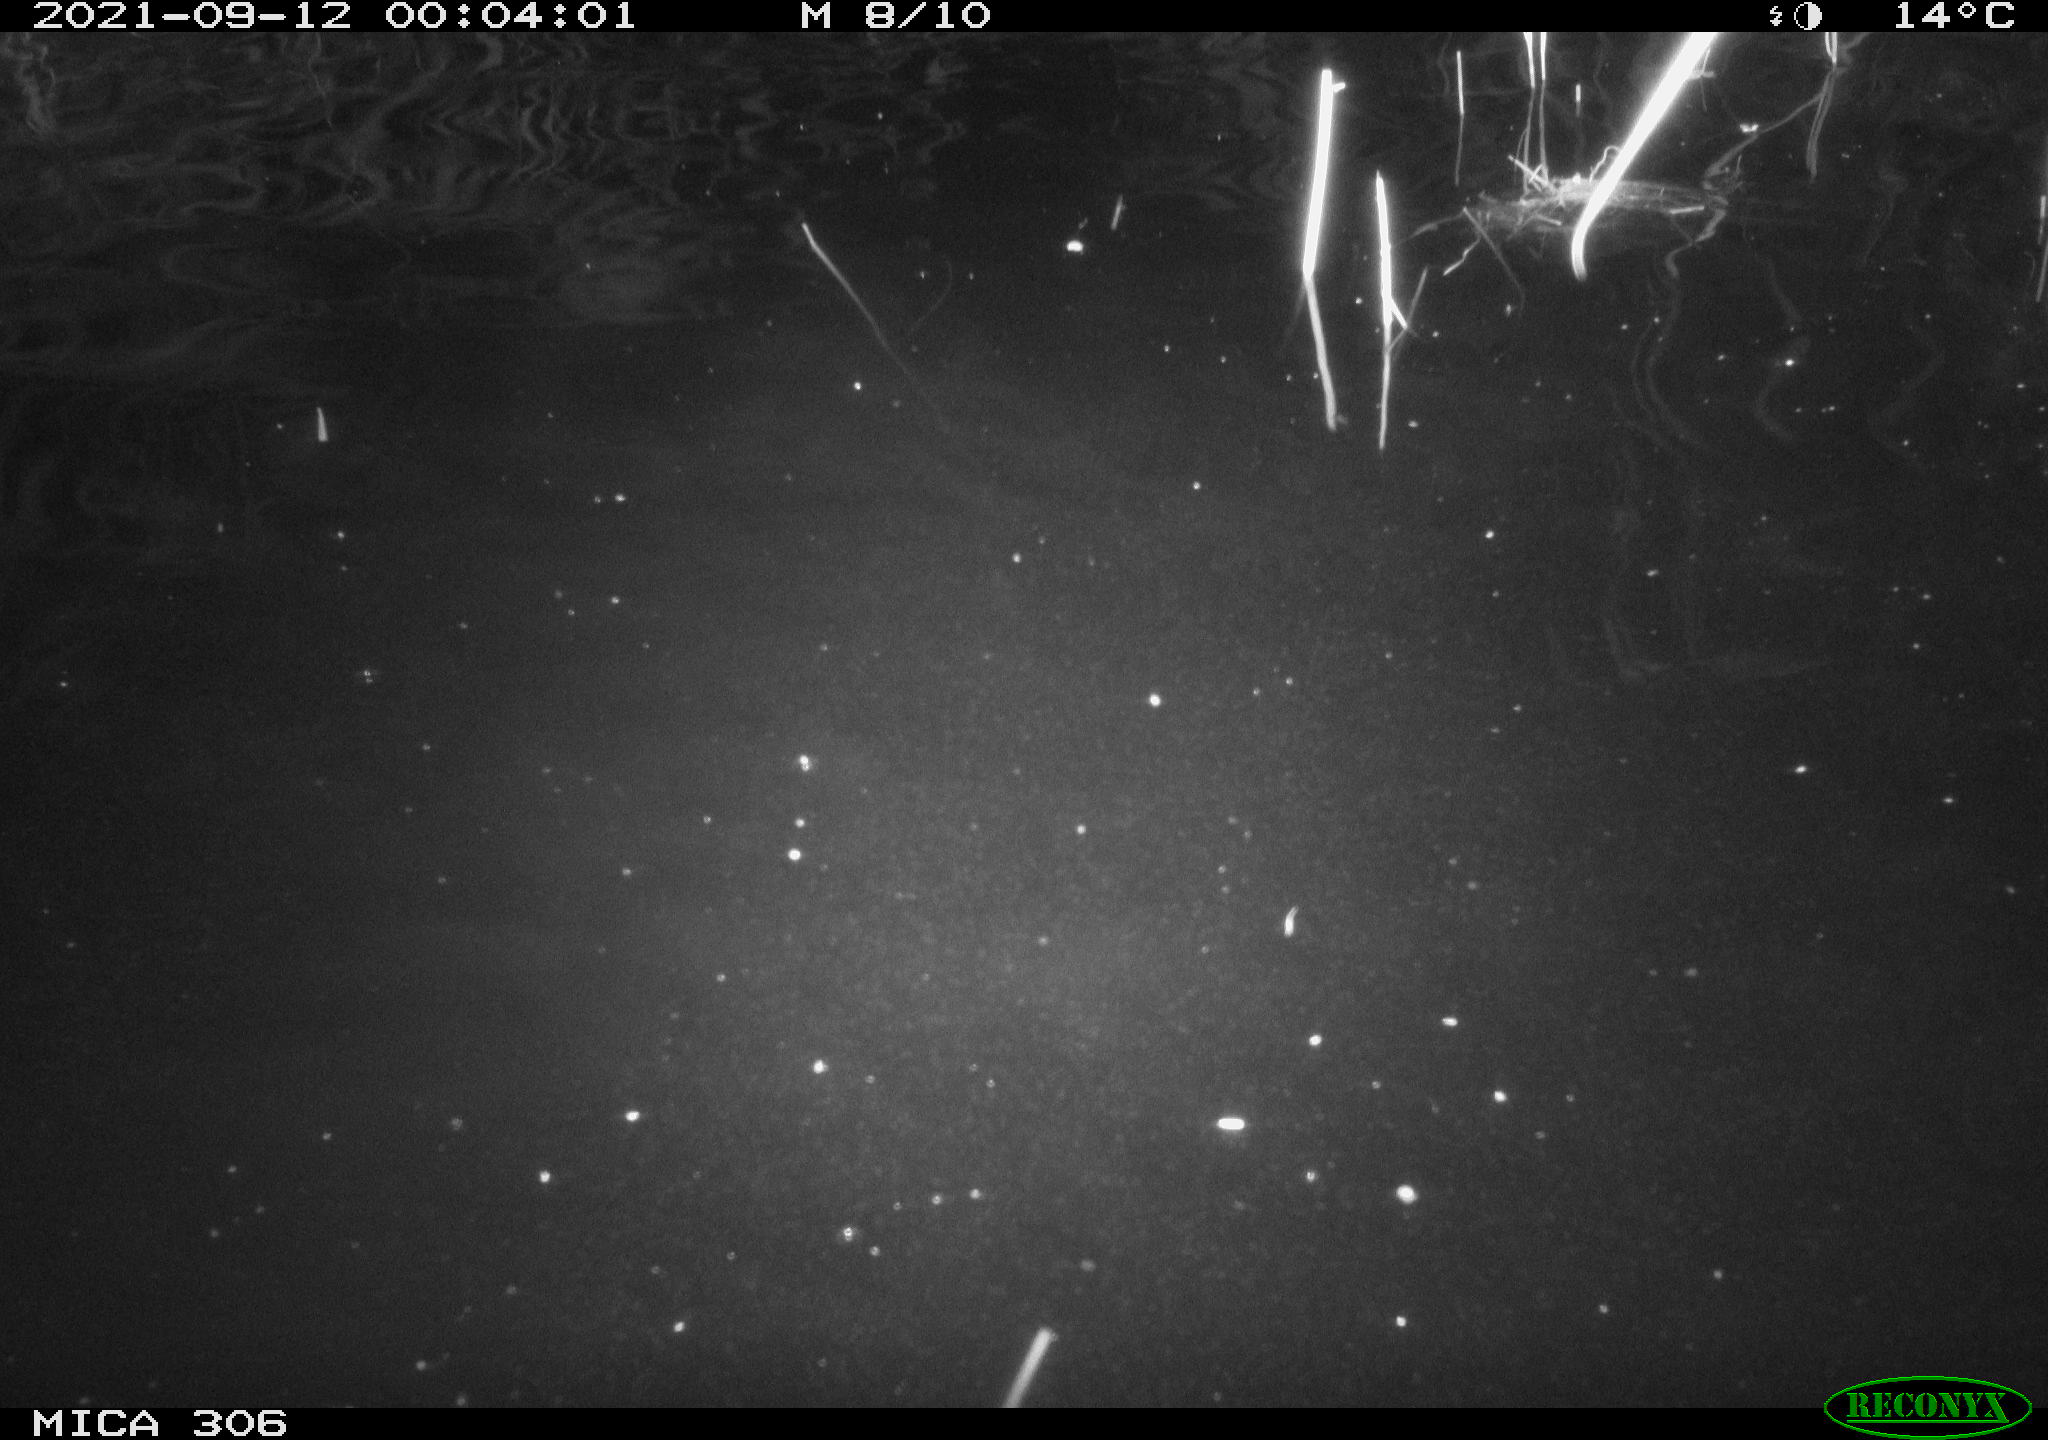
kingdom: Animalia
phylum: Chordata
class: Mammalia
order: Rodentia
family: Cricetidae
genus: Ondatra
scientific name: Ondatra zibethicus
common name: Muskrat
